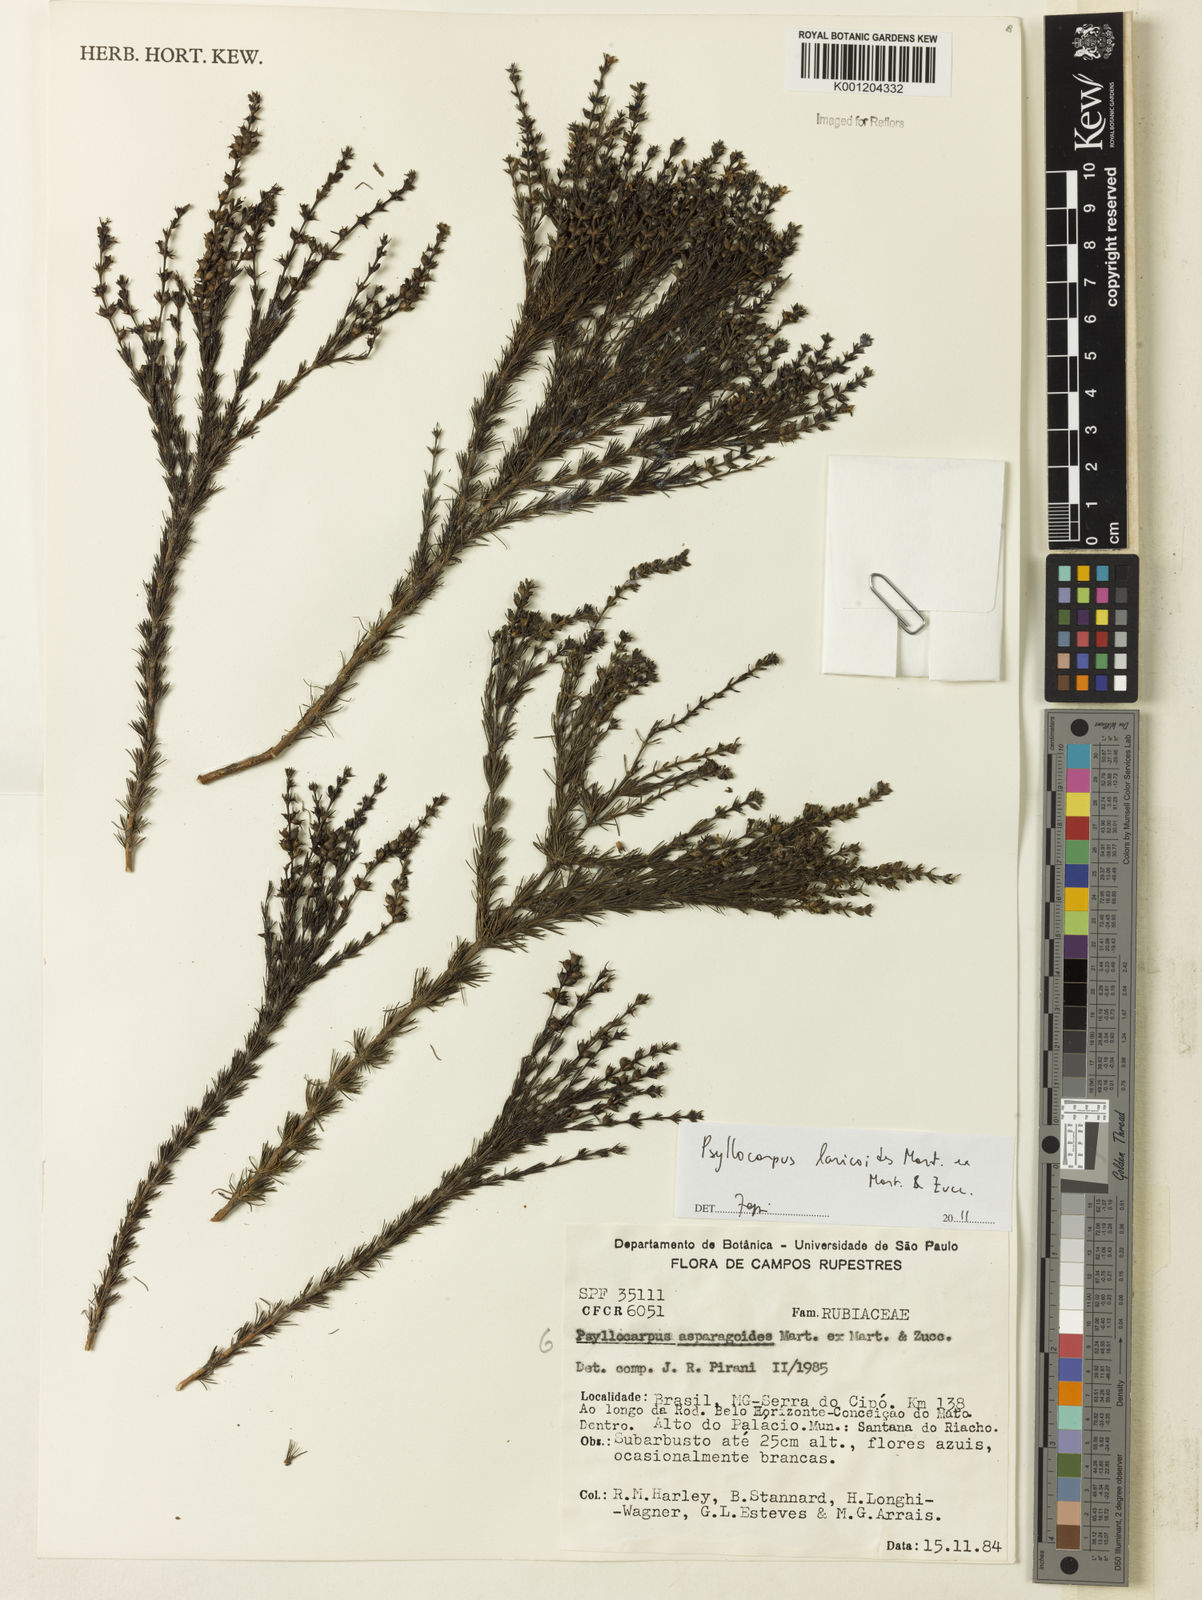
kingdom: Plantae
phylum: Tracheophyta
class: Magnoliopsida
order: Gentianales
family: Rubiaceae
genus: Psyllocarpus
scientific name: Psyllocarpus laricoides
